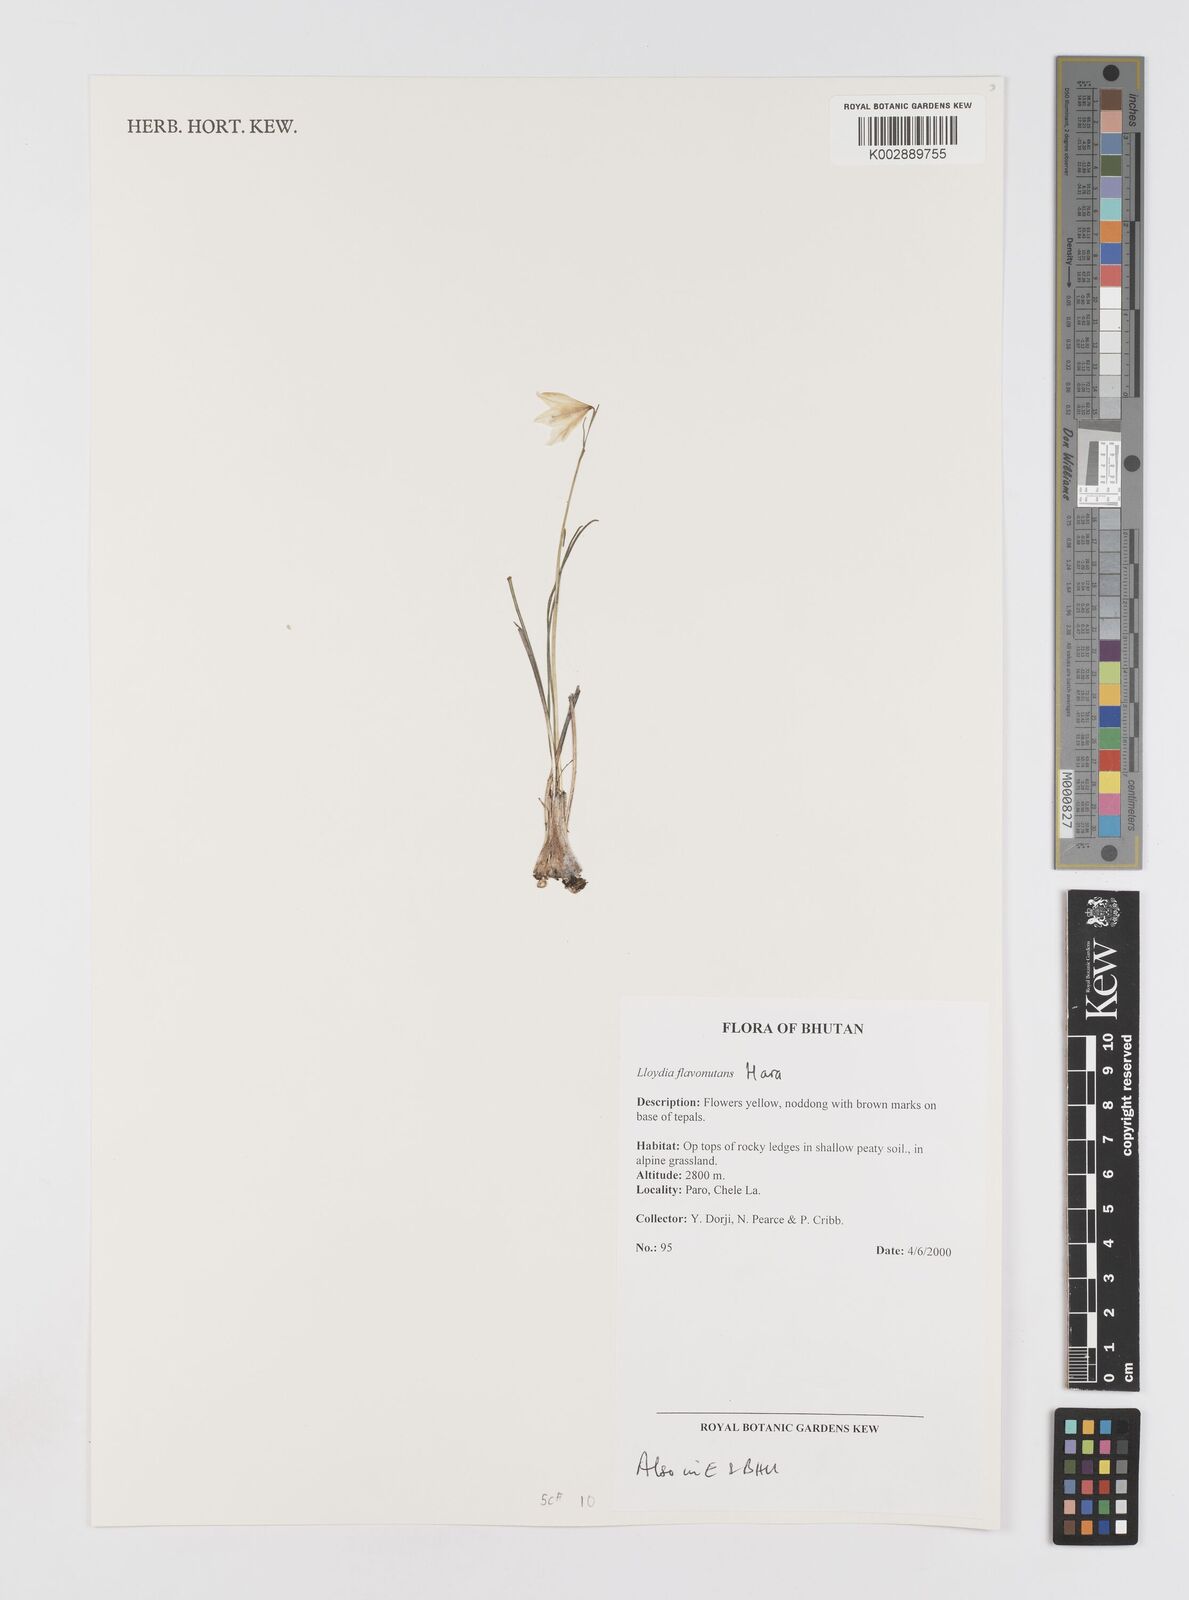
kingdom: Plantae
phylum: Tracheophyta
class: Liliopsida
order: Liliales
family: Liliaceae
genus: Gagea
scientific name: Gagea flavonutans
